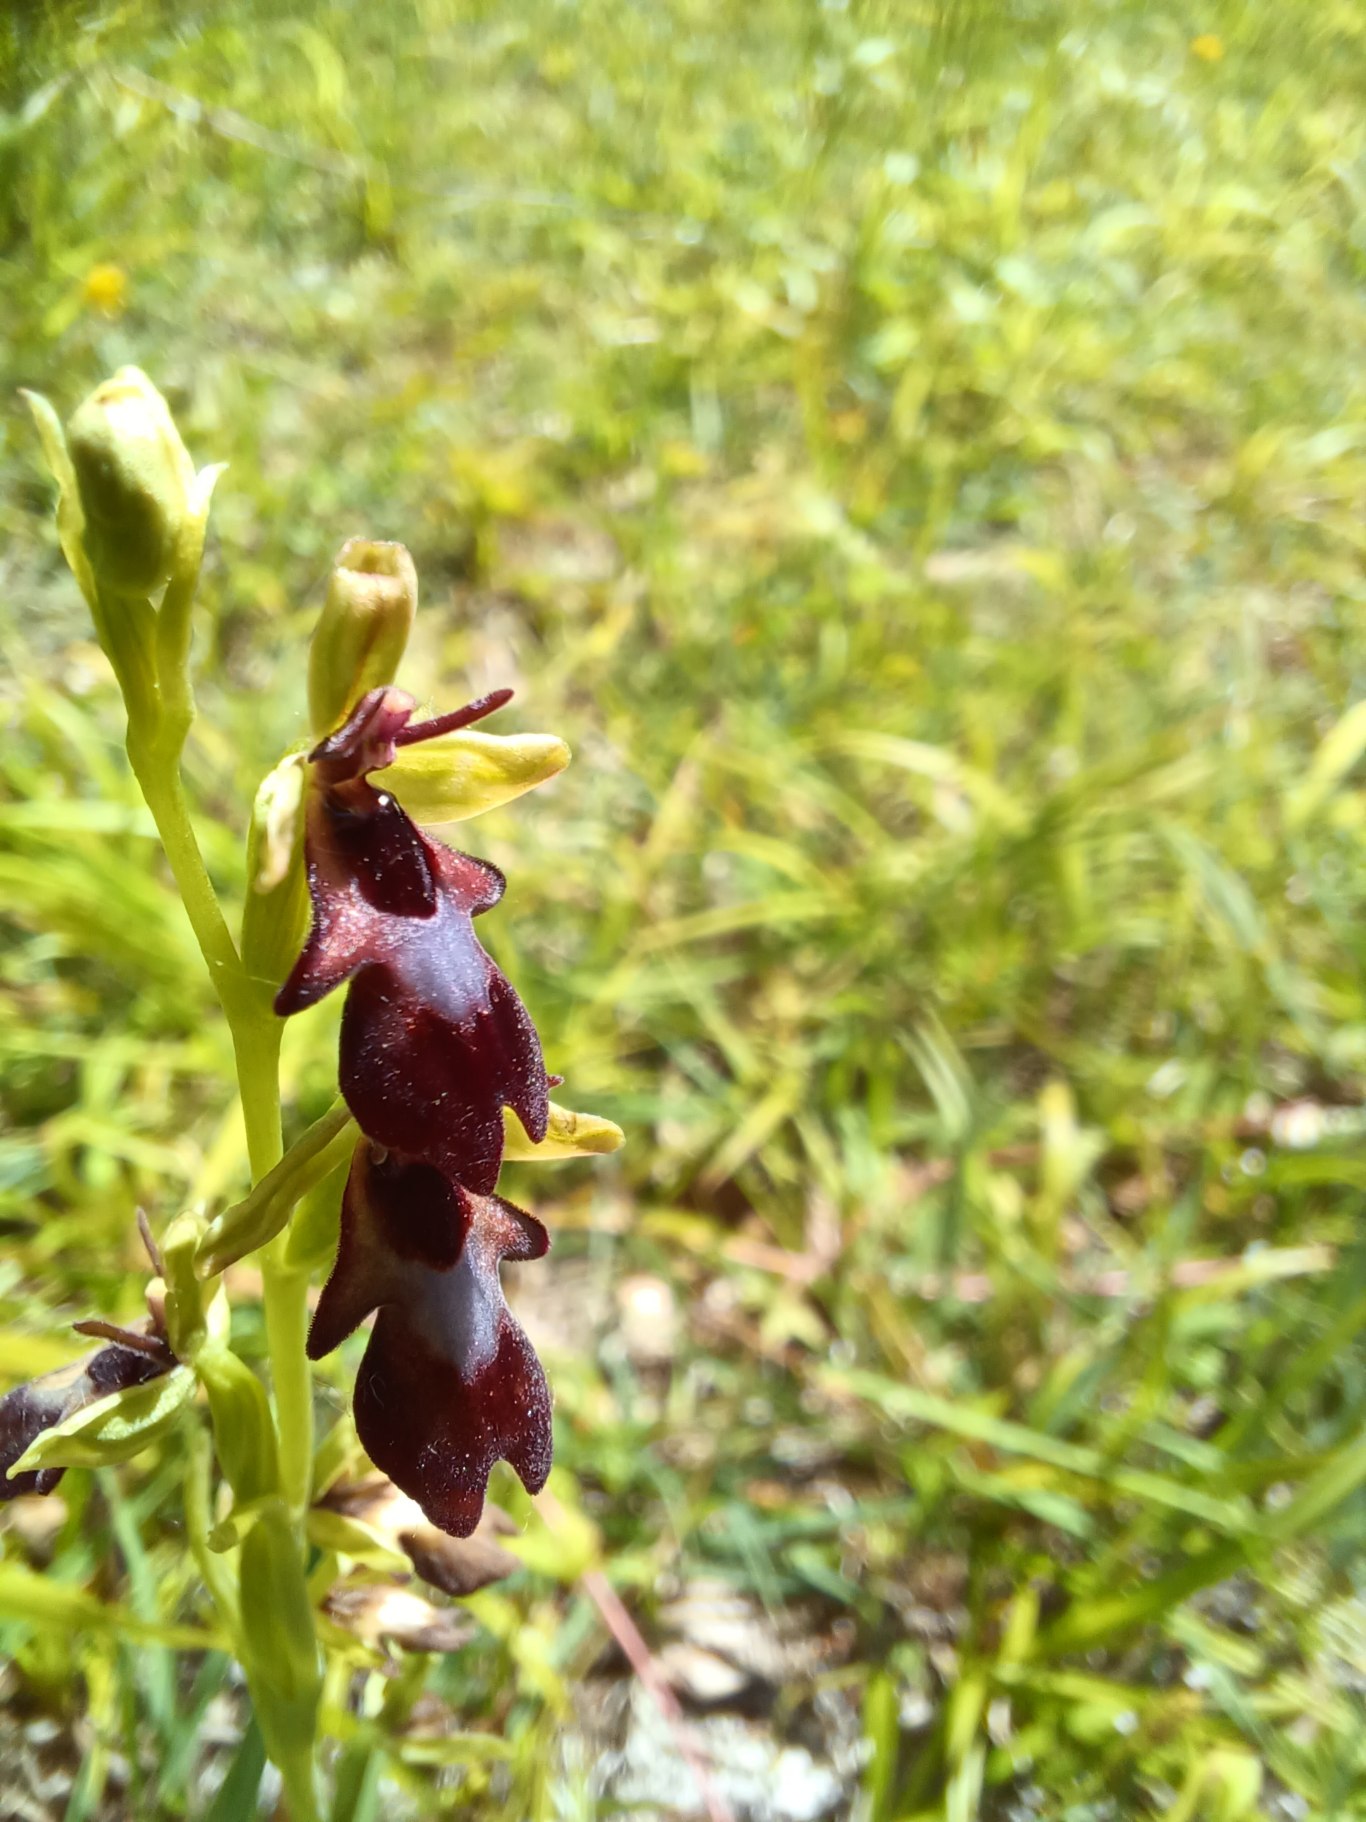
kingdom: Plantae
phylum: Tracheophyta
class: Liliopsida
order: Asparagales
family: Orchidaceae
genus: Ophrys
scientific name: Ophrys insectifera
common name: Flueblomst
